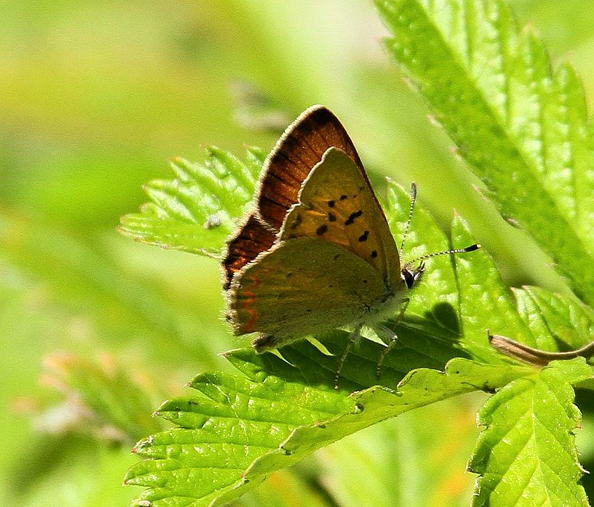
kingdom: Animalia
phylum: Arthropoda
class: Insecta
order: Lepidoptera
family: Sesiidae
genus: Sesia
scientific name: Sesia Lycaena helloides
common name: Purplish Copper
